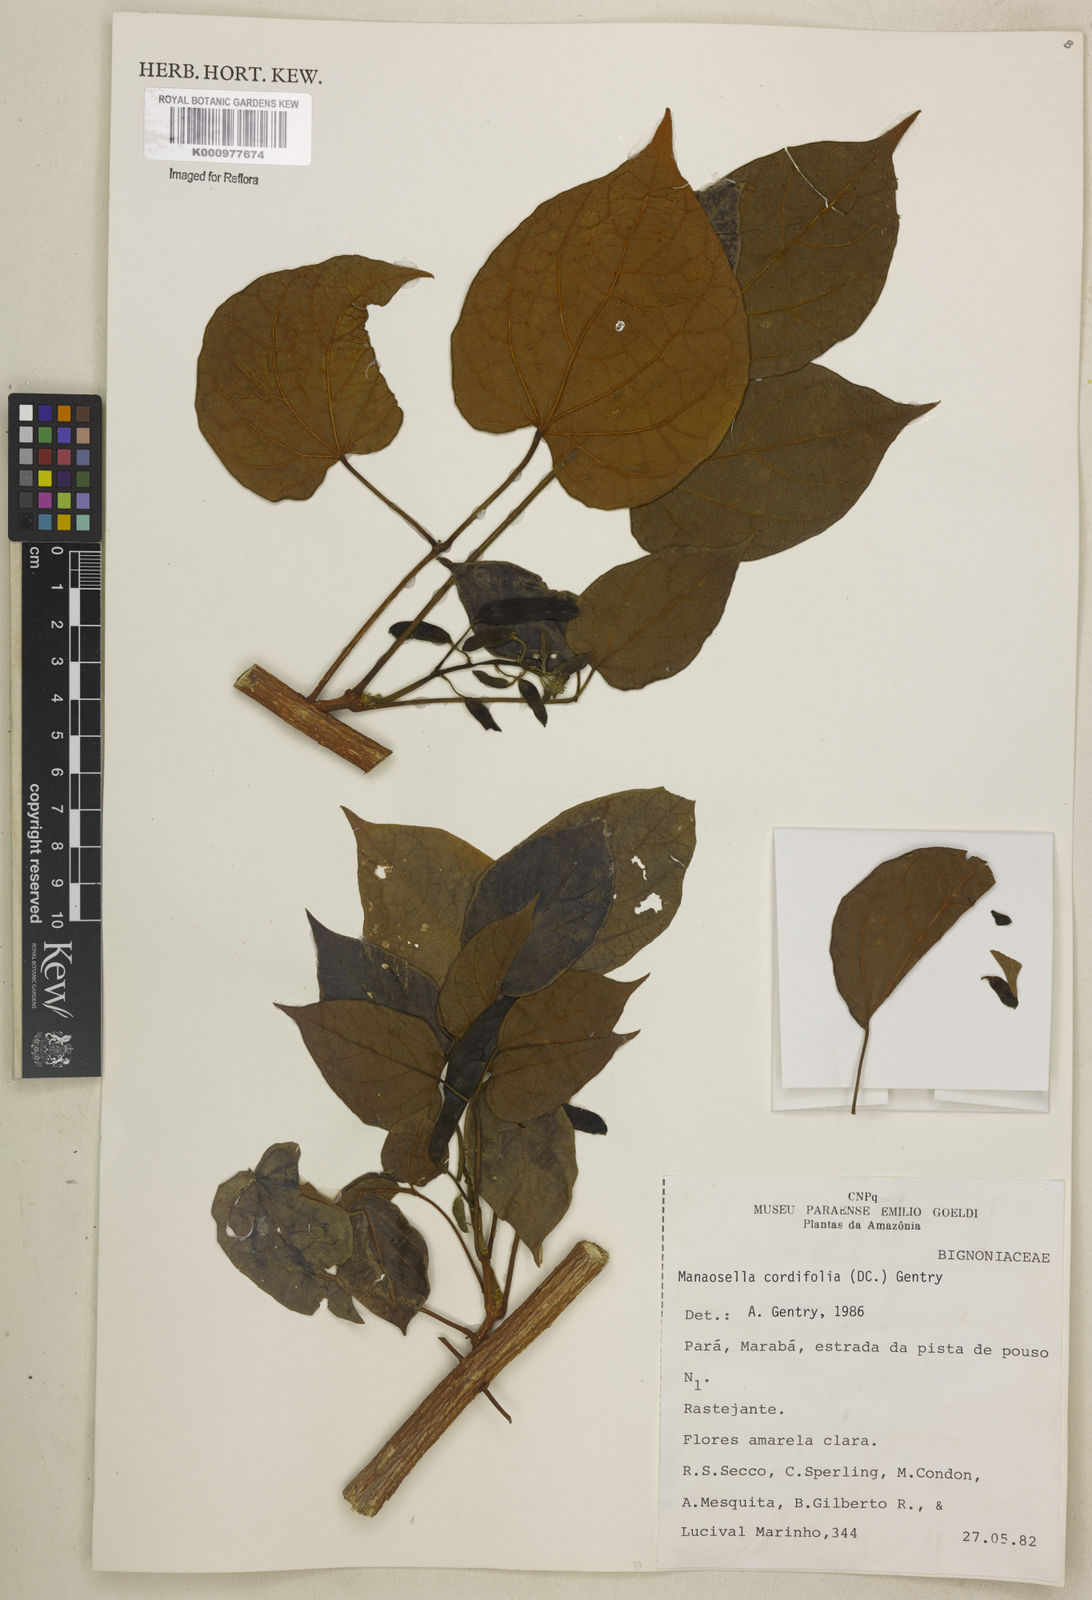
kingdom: Plantae
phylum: Tracheophyta
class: Magnoliopsida
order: Lamiales
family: Bignoniaceae
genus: Manaosella
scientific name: Manaosella cordifolia
